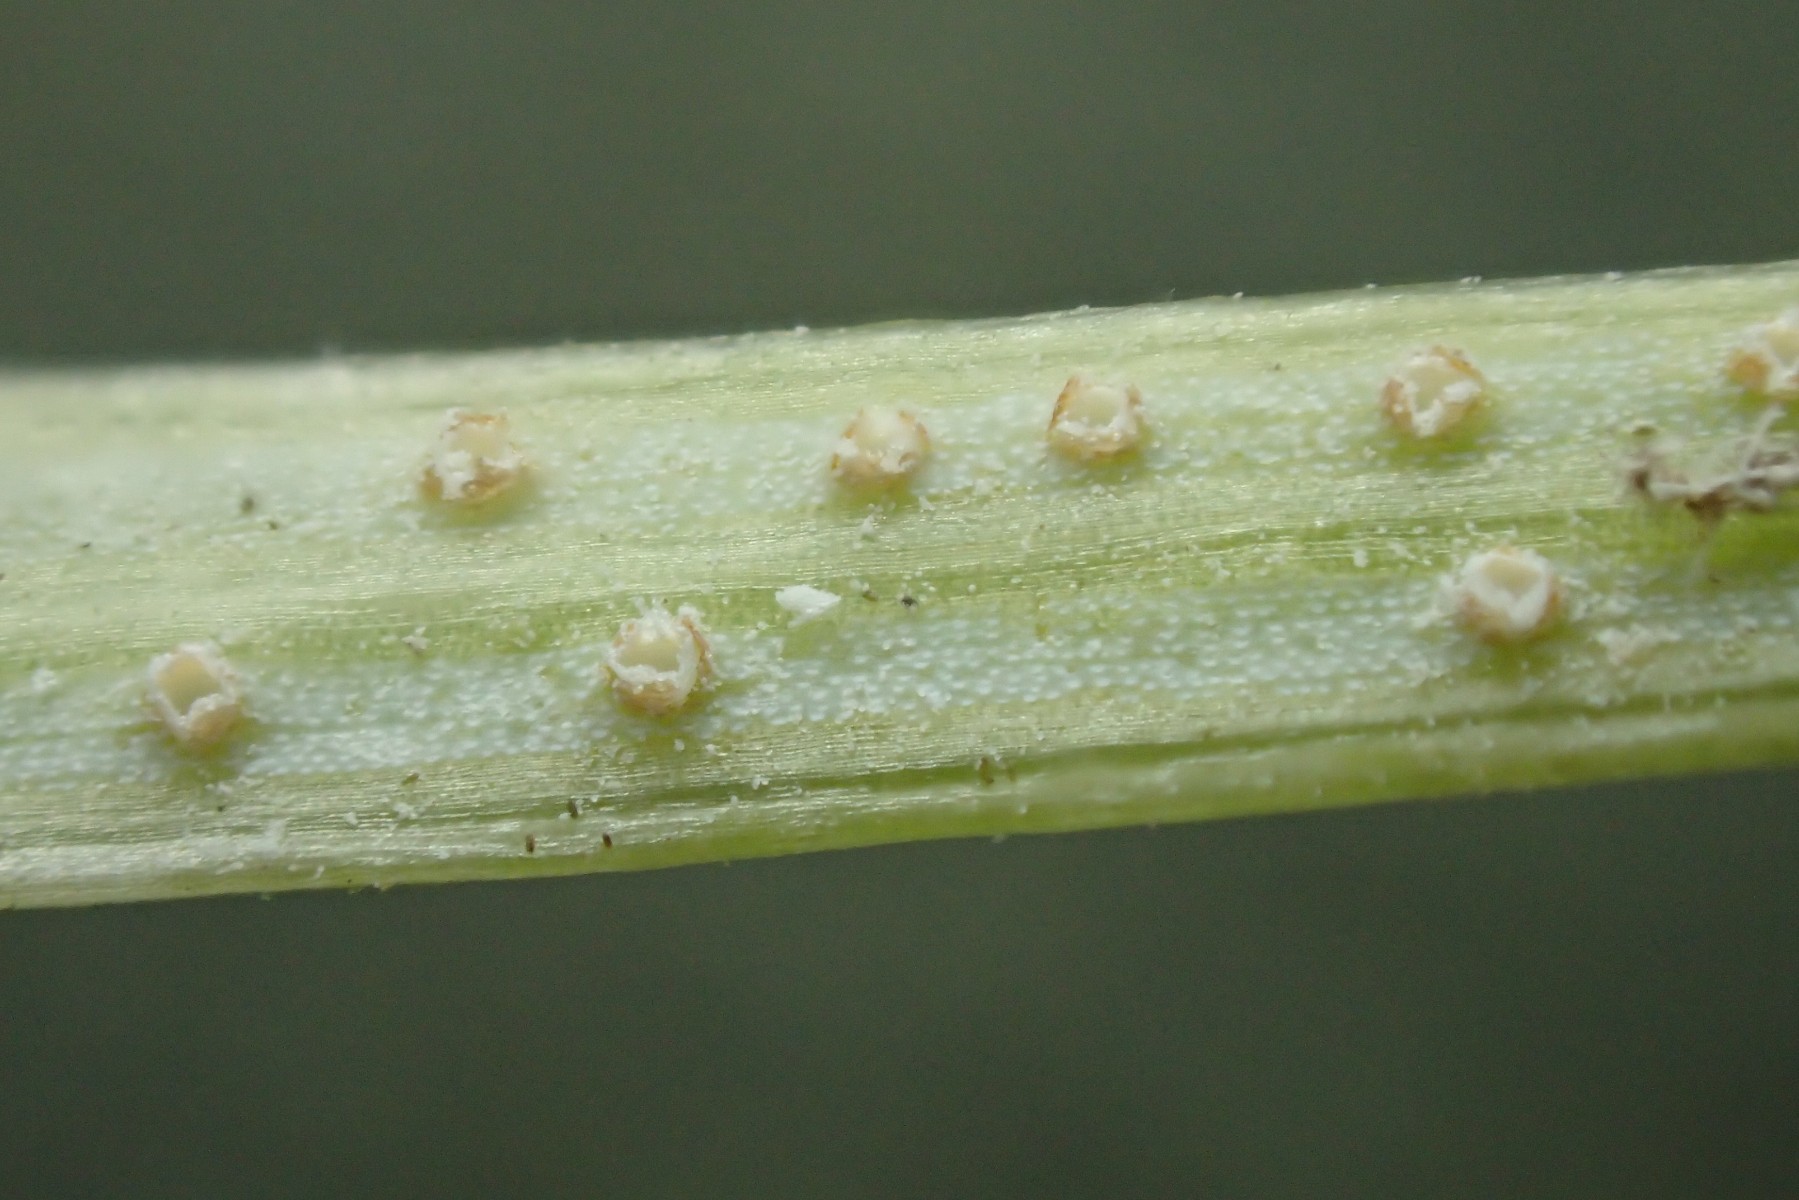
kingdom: Fungi
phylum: Basidiomycota
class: Pucciniomycetes
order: Pucciniales
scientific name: Pucciniales
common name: rustsvampeordenen
